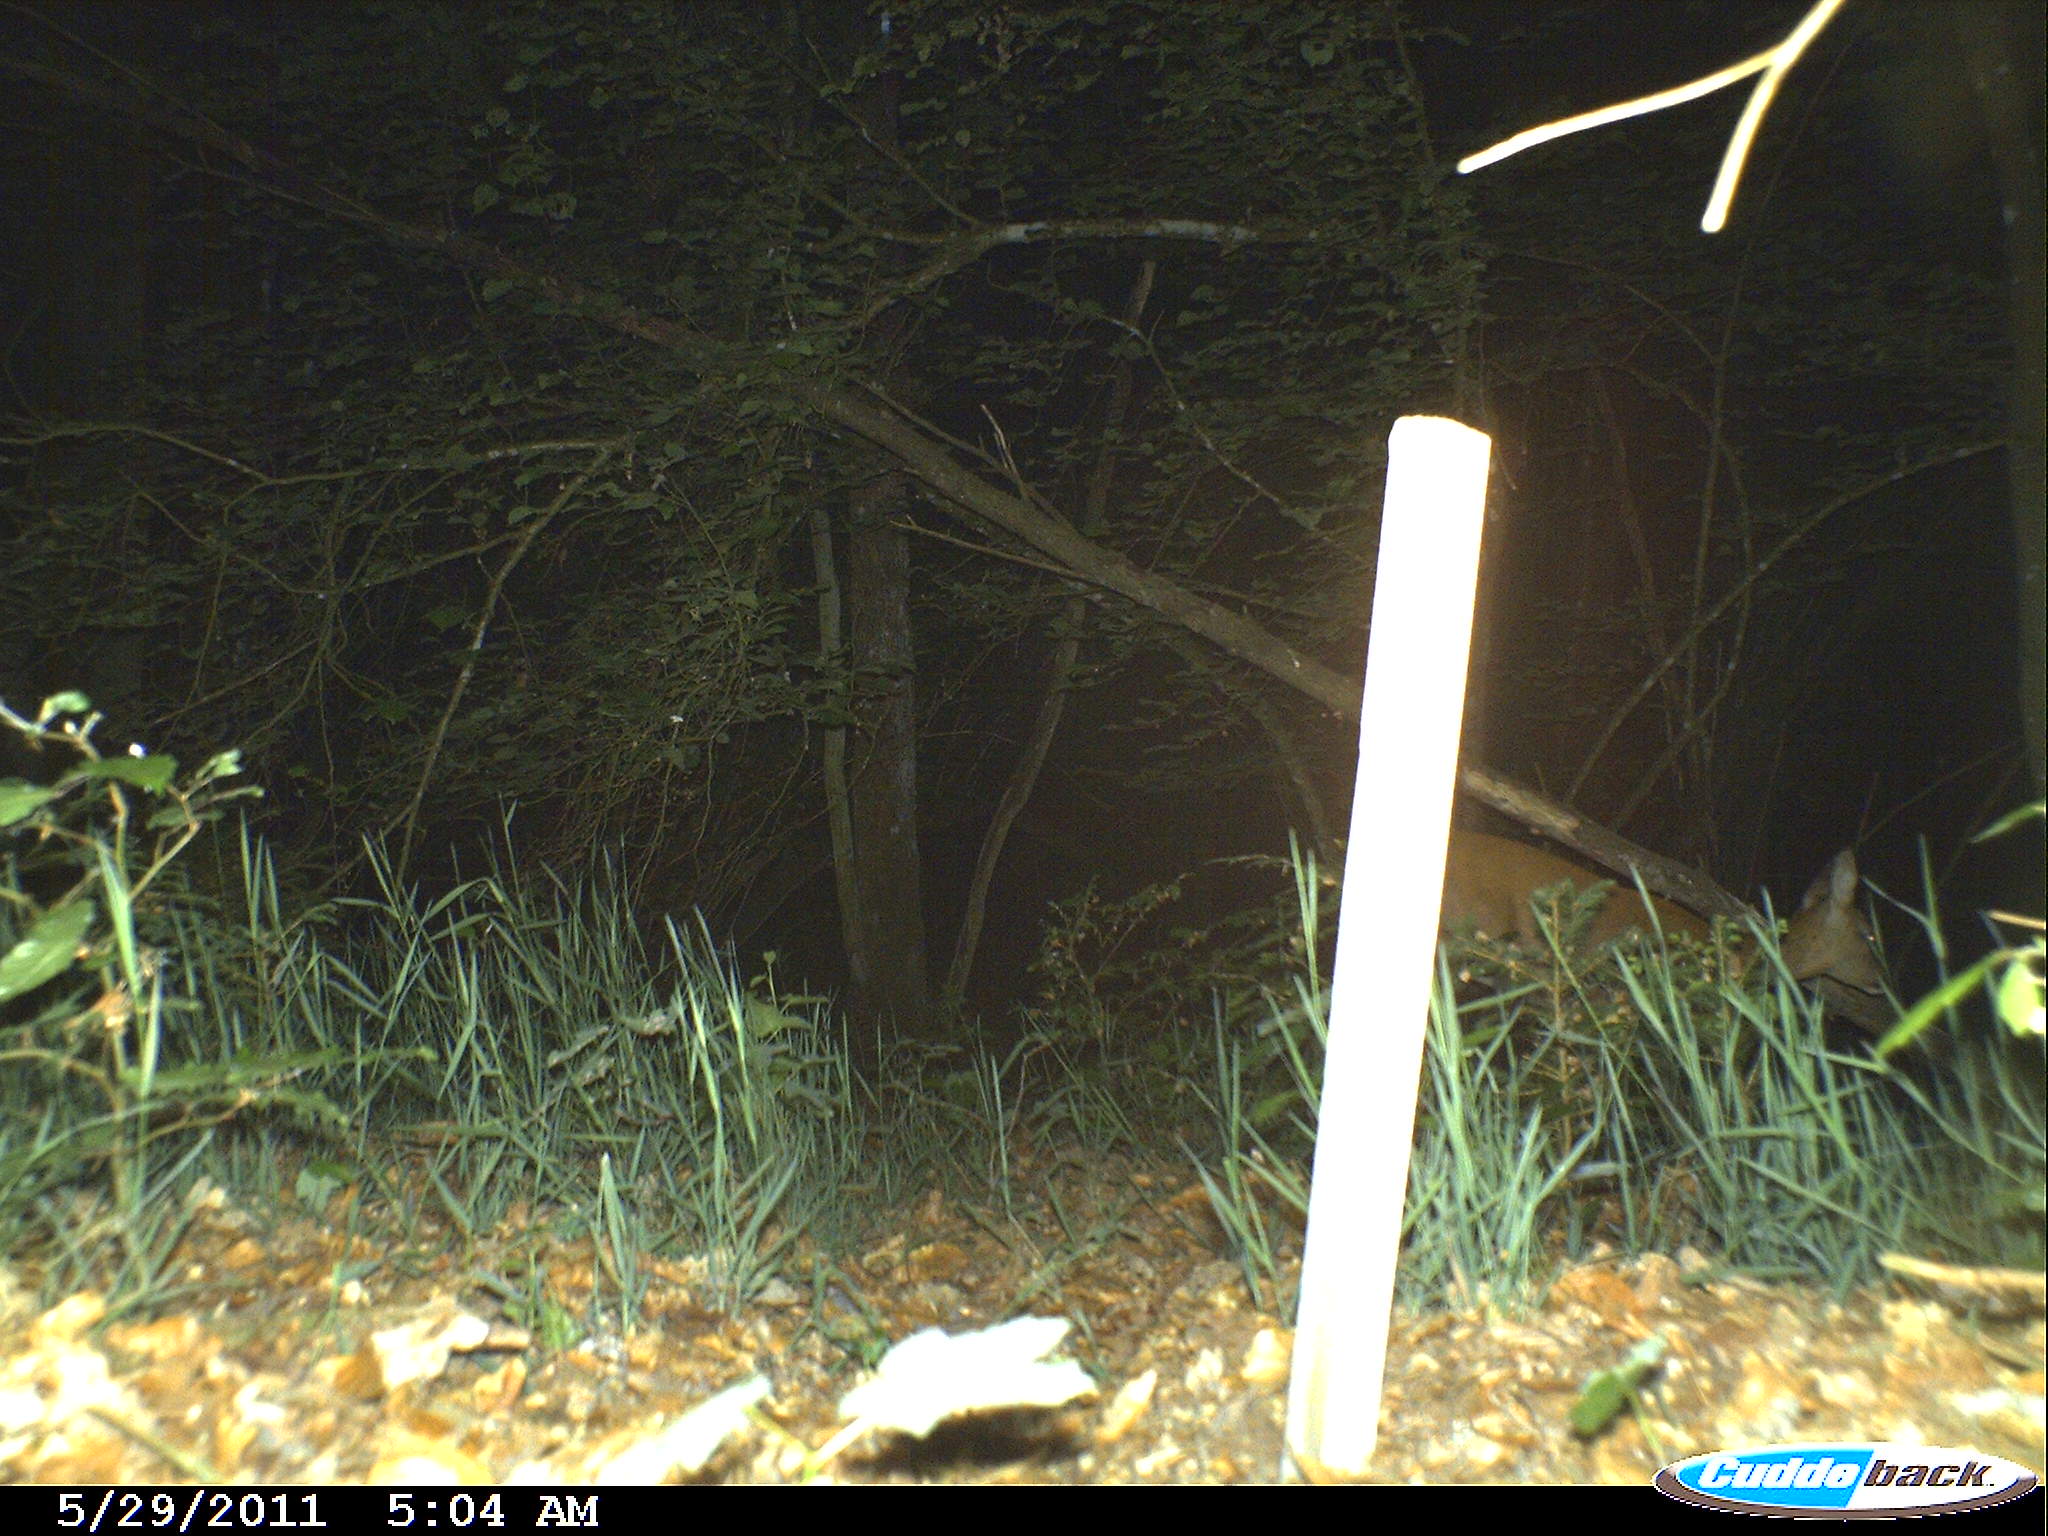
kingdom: Animalia
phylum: Chordata
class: Mammalia
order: Artiodactyla
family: Cervidae
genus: Capreolus
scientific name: Capreolus capreolus
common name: Western roe deer
